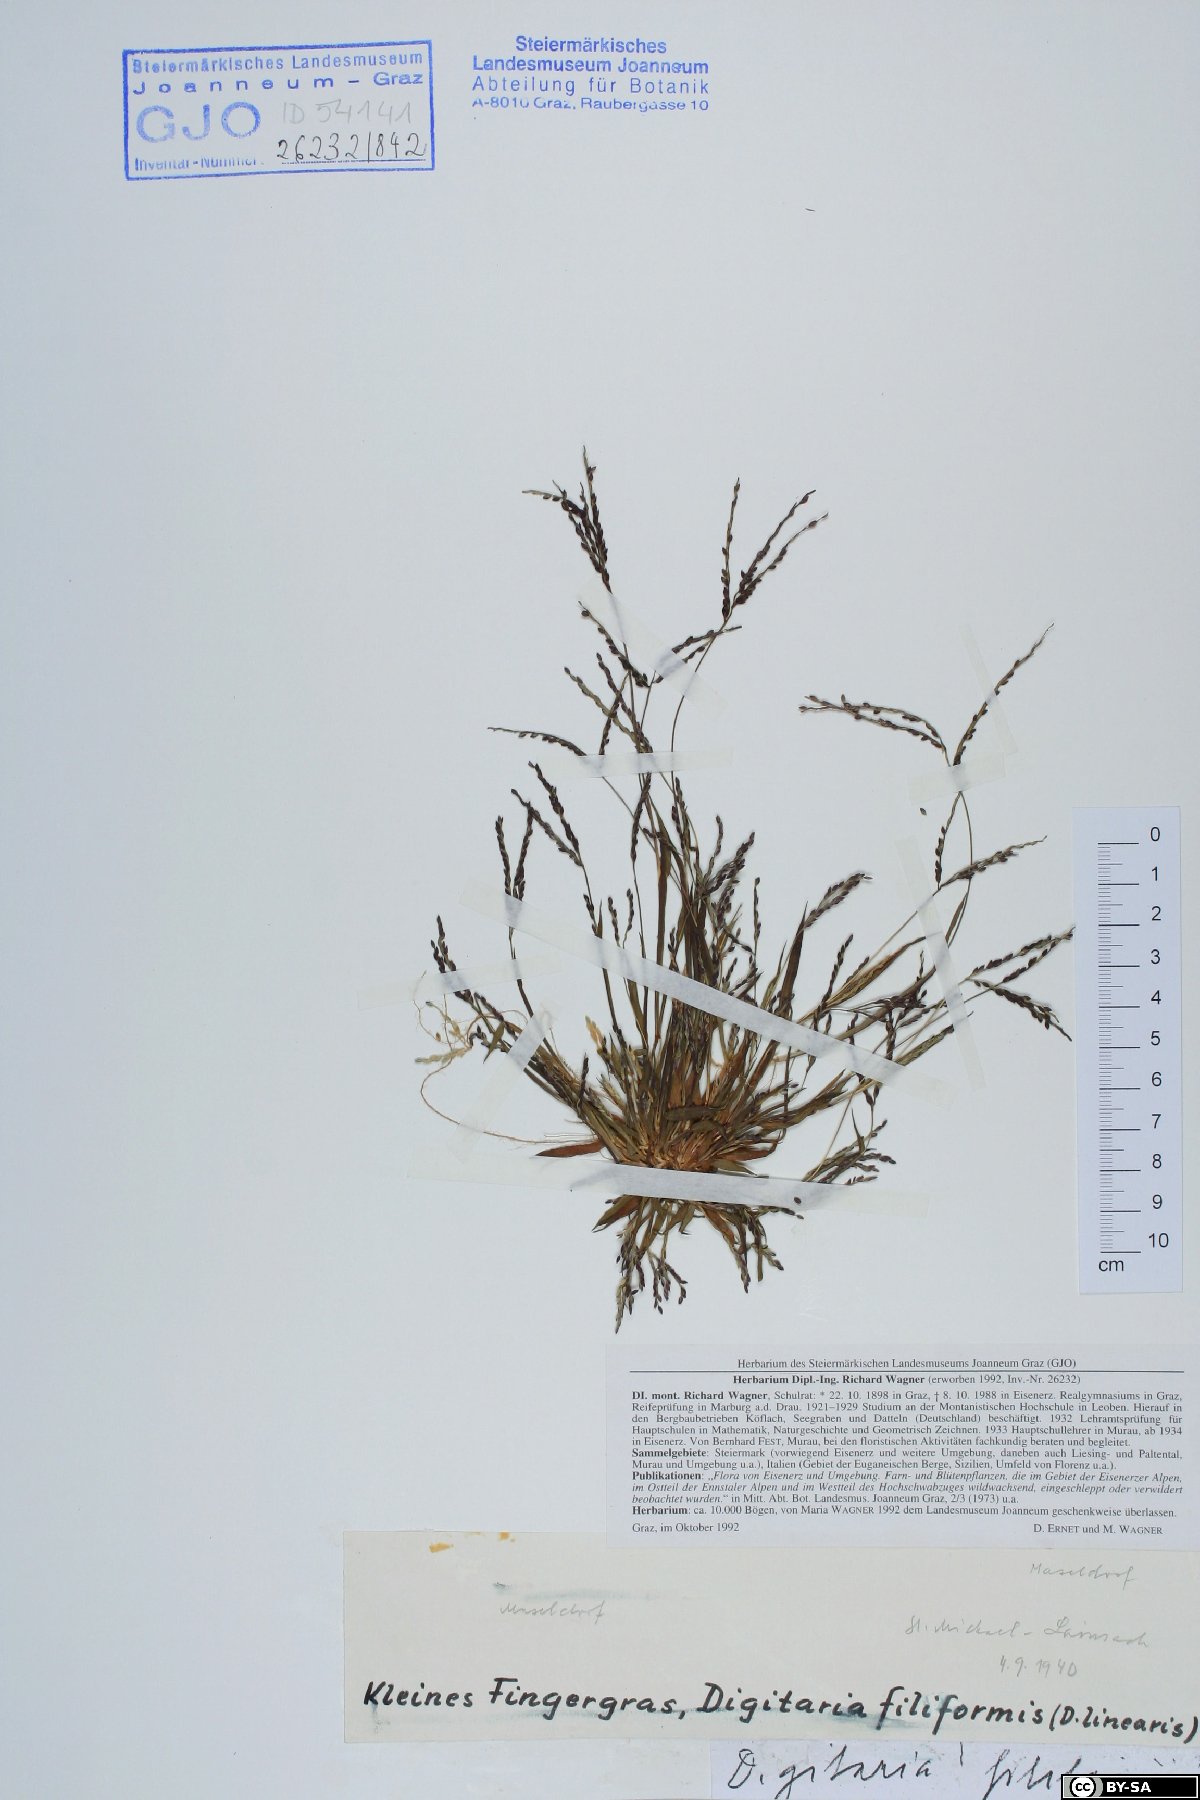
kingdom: Plantae
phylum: Tracheophyta
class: Liliopsida
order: Poales
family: Poaceae
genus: Digitaria
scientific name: Digitaria filiformis
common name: Slender crabgrass
